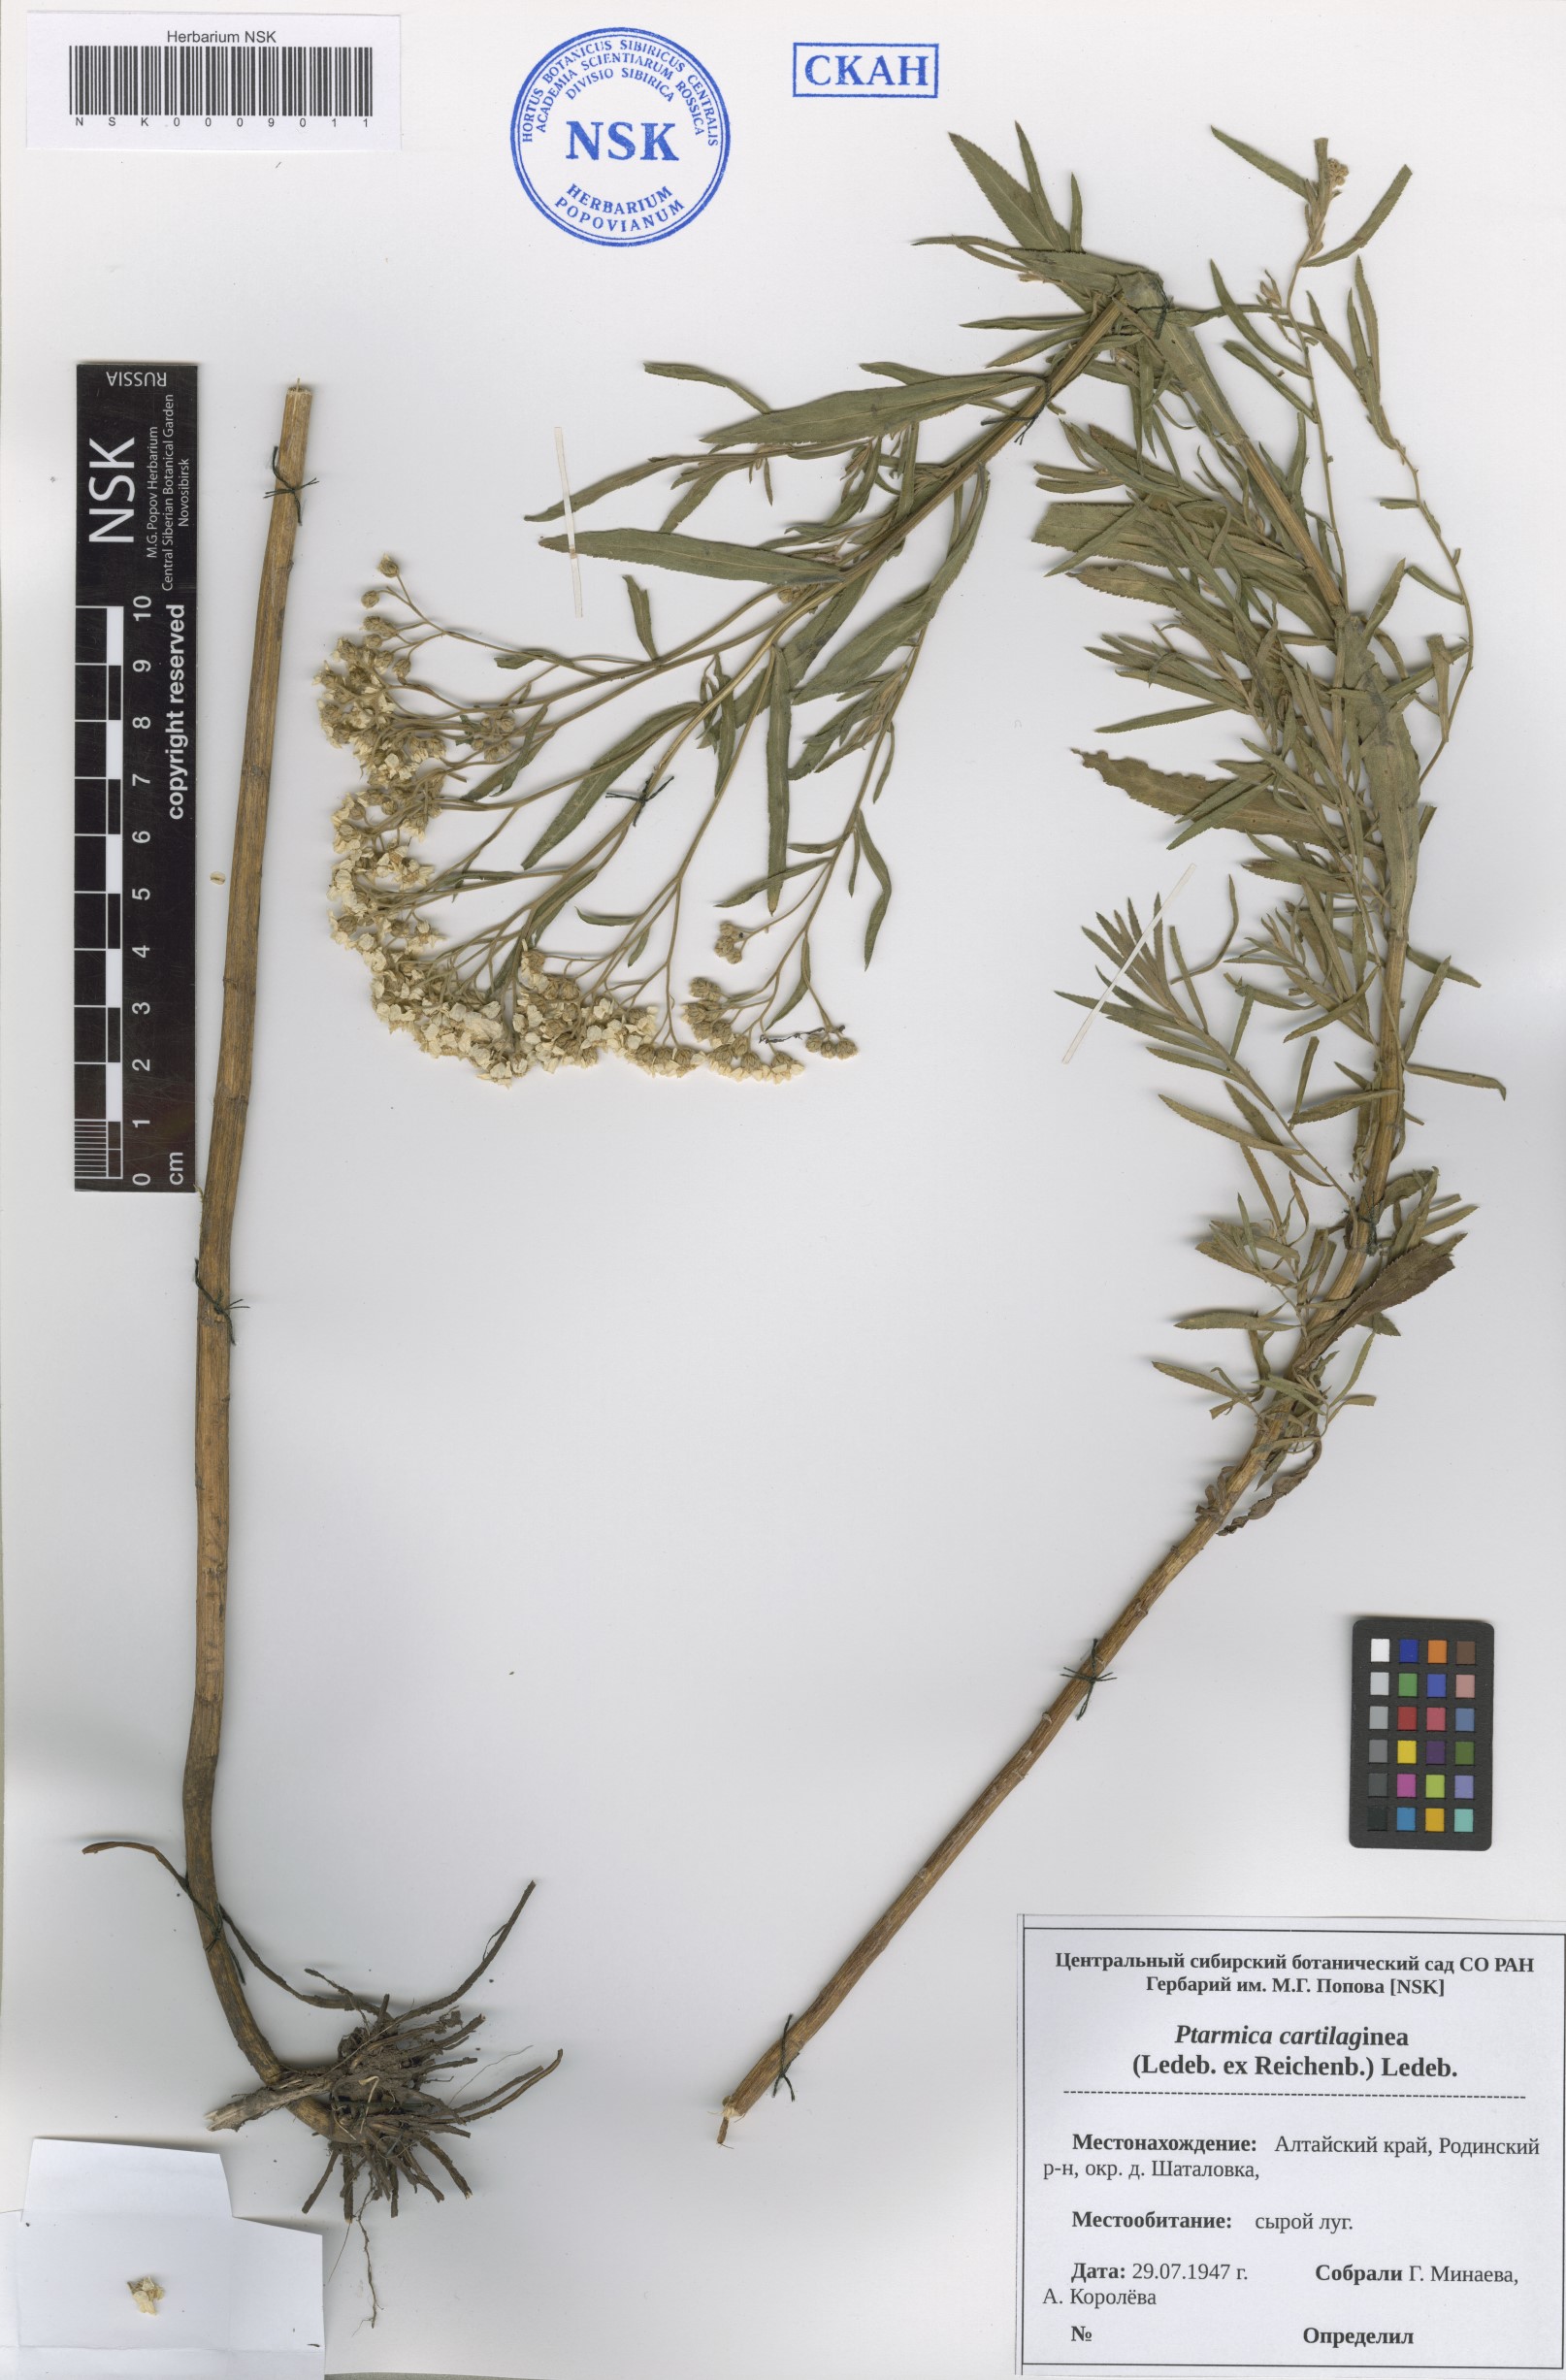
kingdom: Plantae
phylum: Tracheophyta
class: Magnoliopsida
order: Asterales
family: Asteraceae
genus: Achillea
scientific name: Achillea salicifolia
